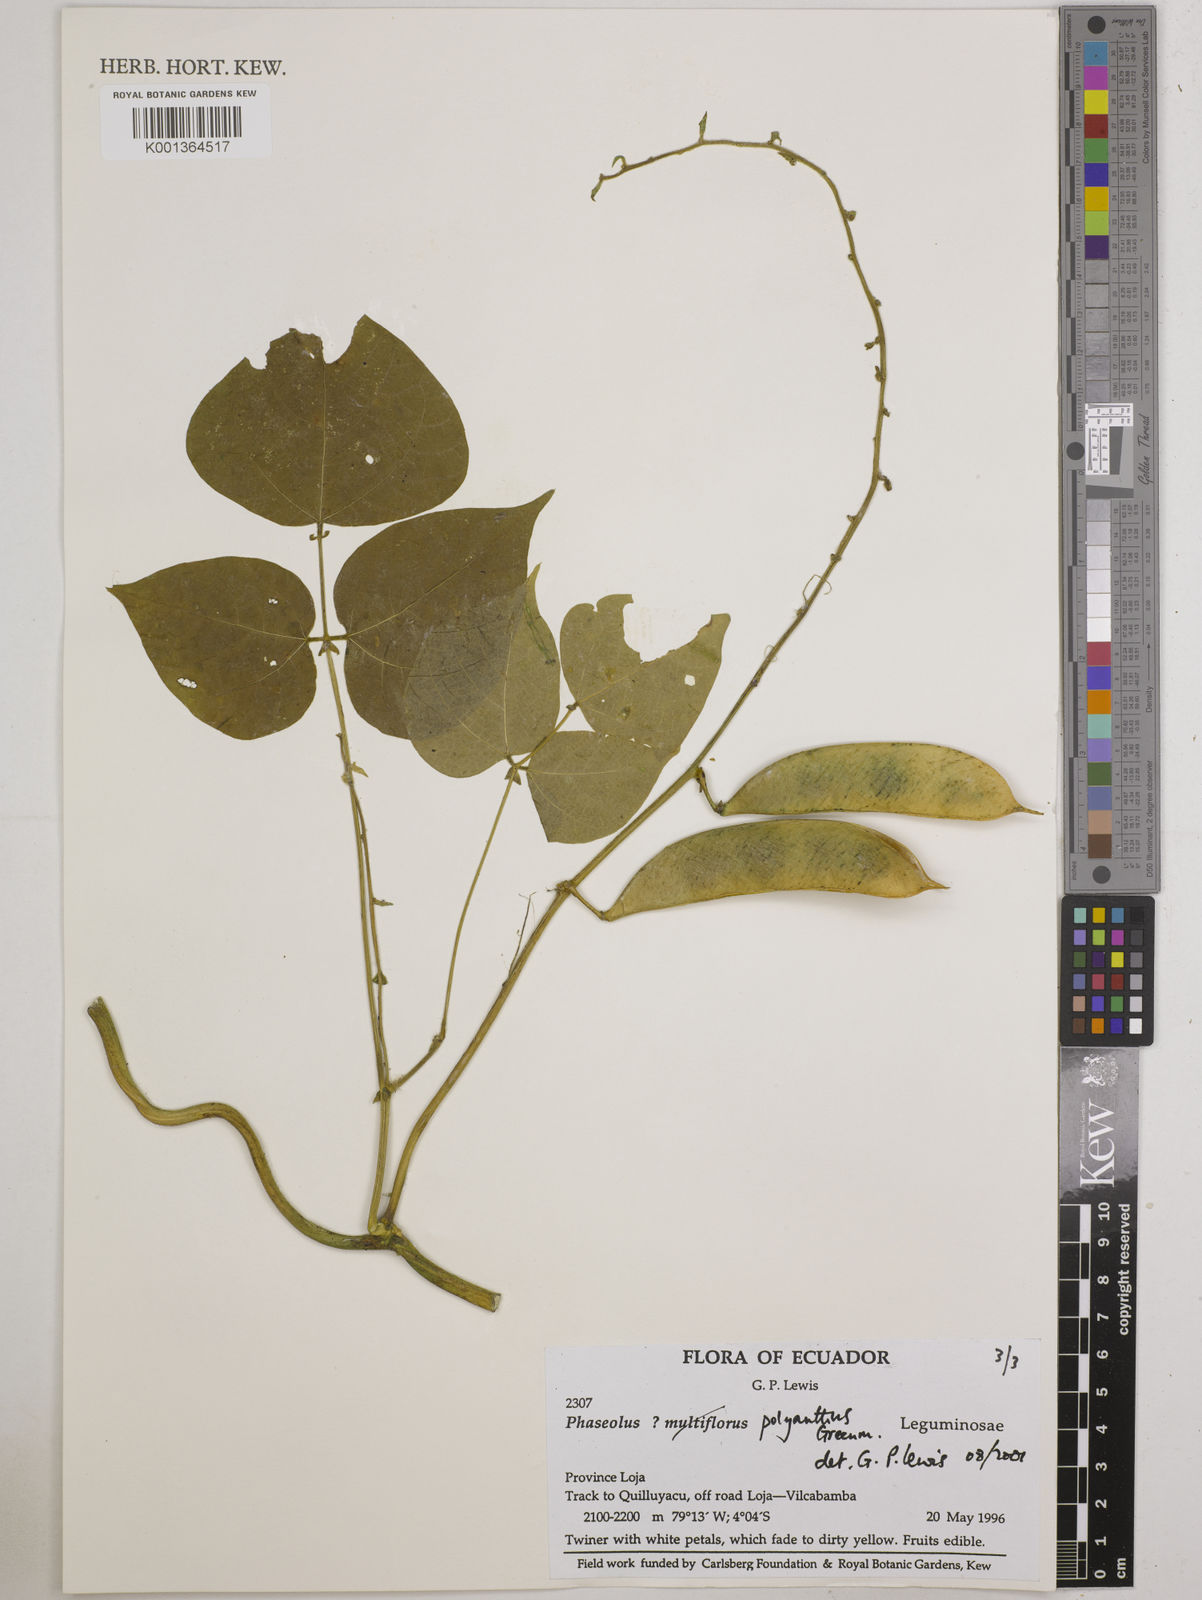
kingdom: Plantae
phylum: Tracheophyta
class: Magnoliopsida
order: Fabales
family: Fabaceae
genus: Phaseolus
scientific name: Phaseolus dumosus
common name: Year bean
